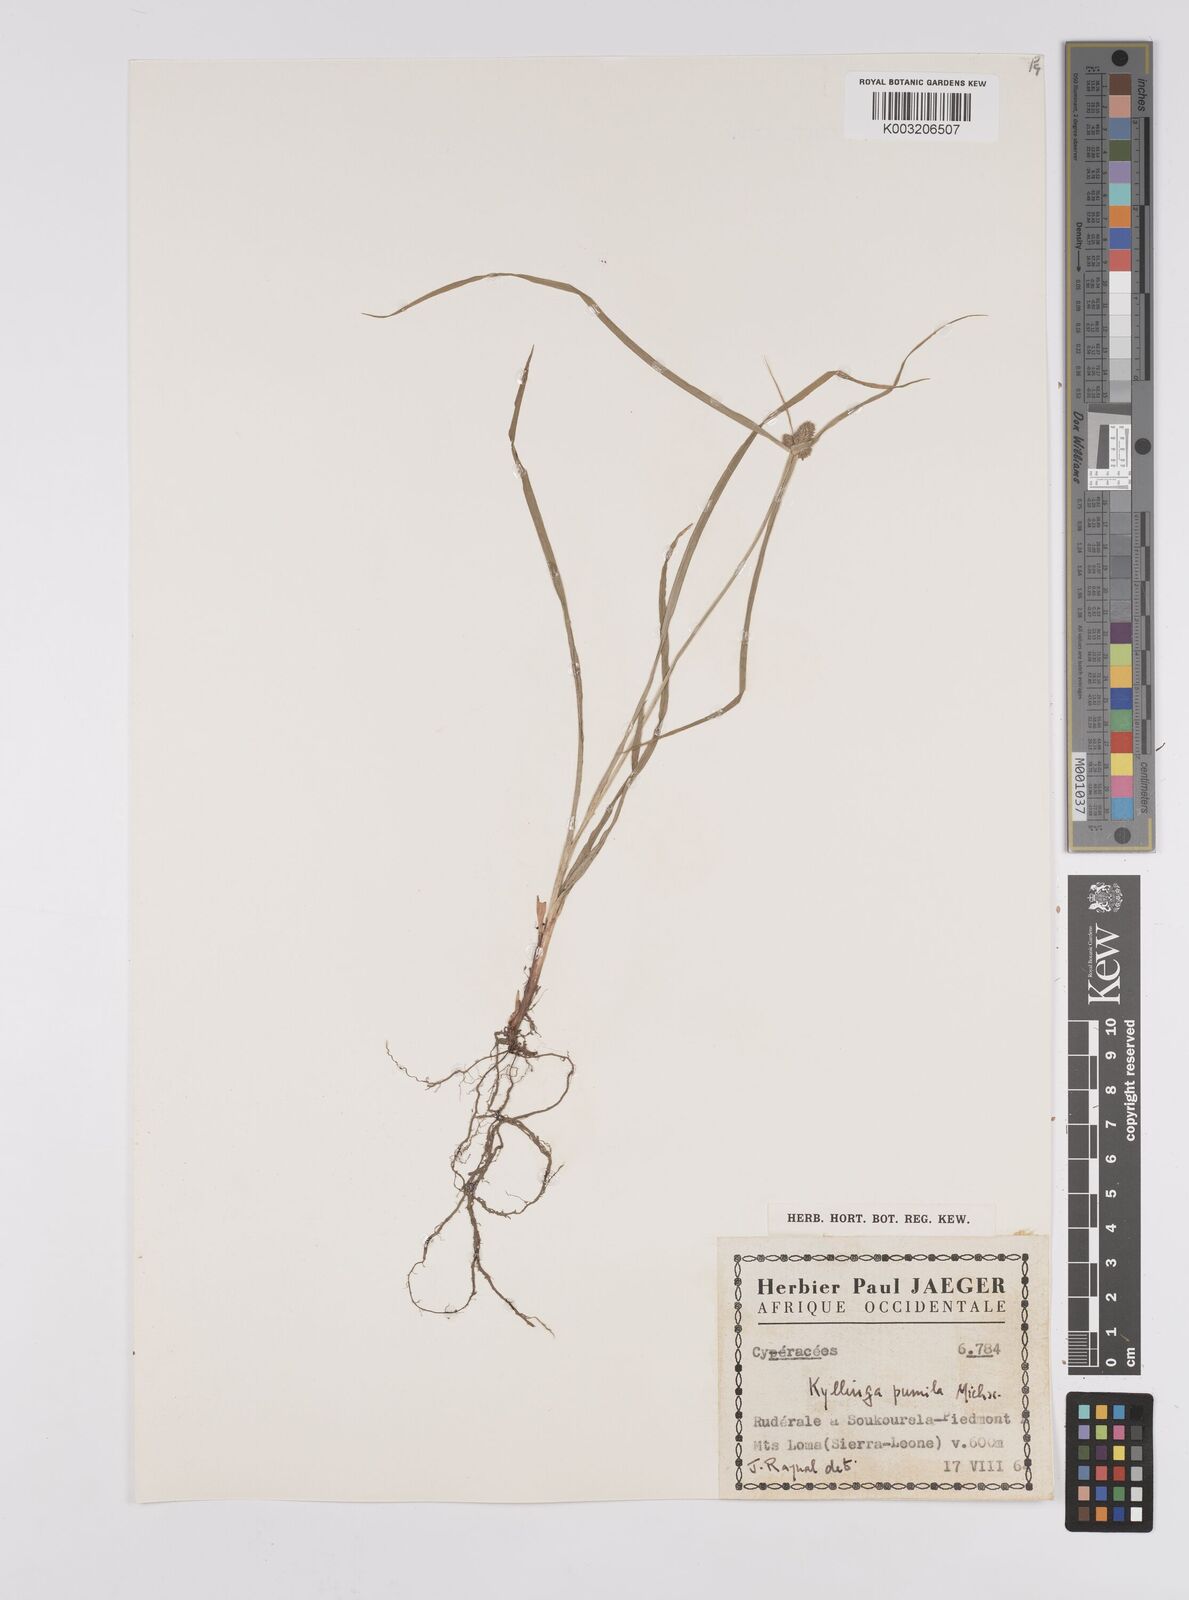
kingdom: Plantae
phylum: Tracheophyta
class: Liliopsida
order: Poales
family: Cyperaceae
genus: Cyperus
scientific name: Cyperus
